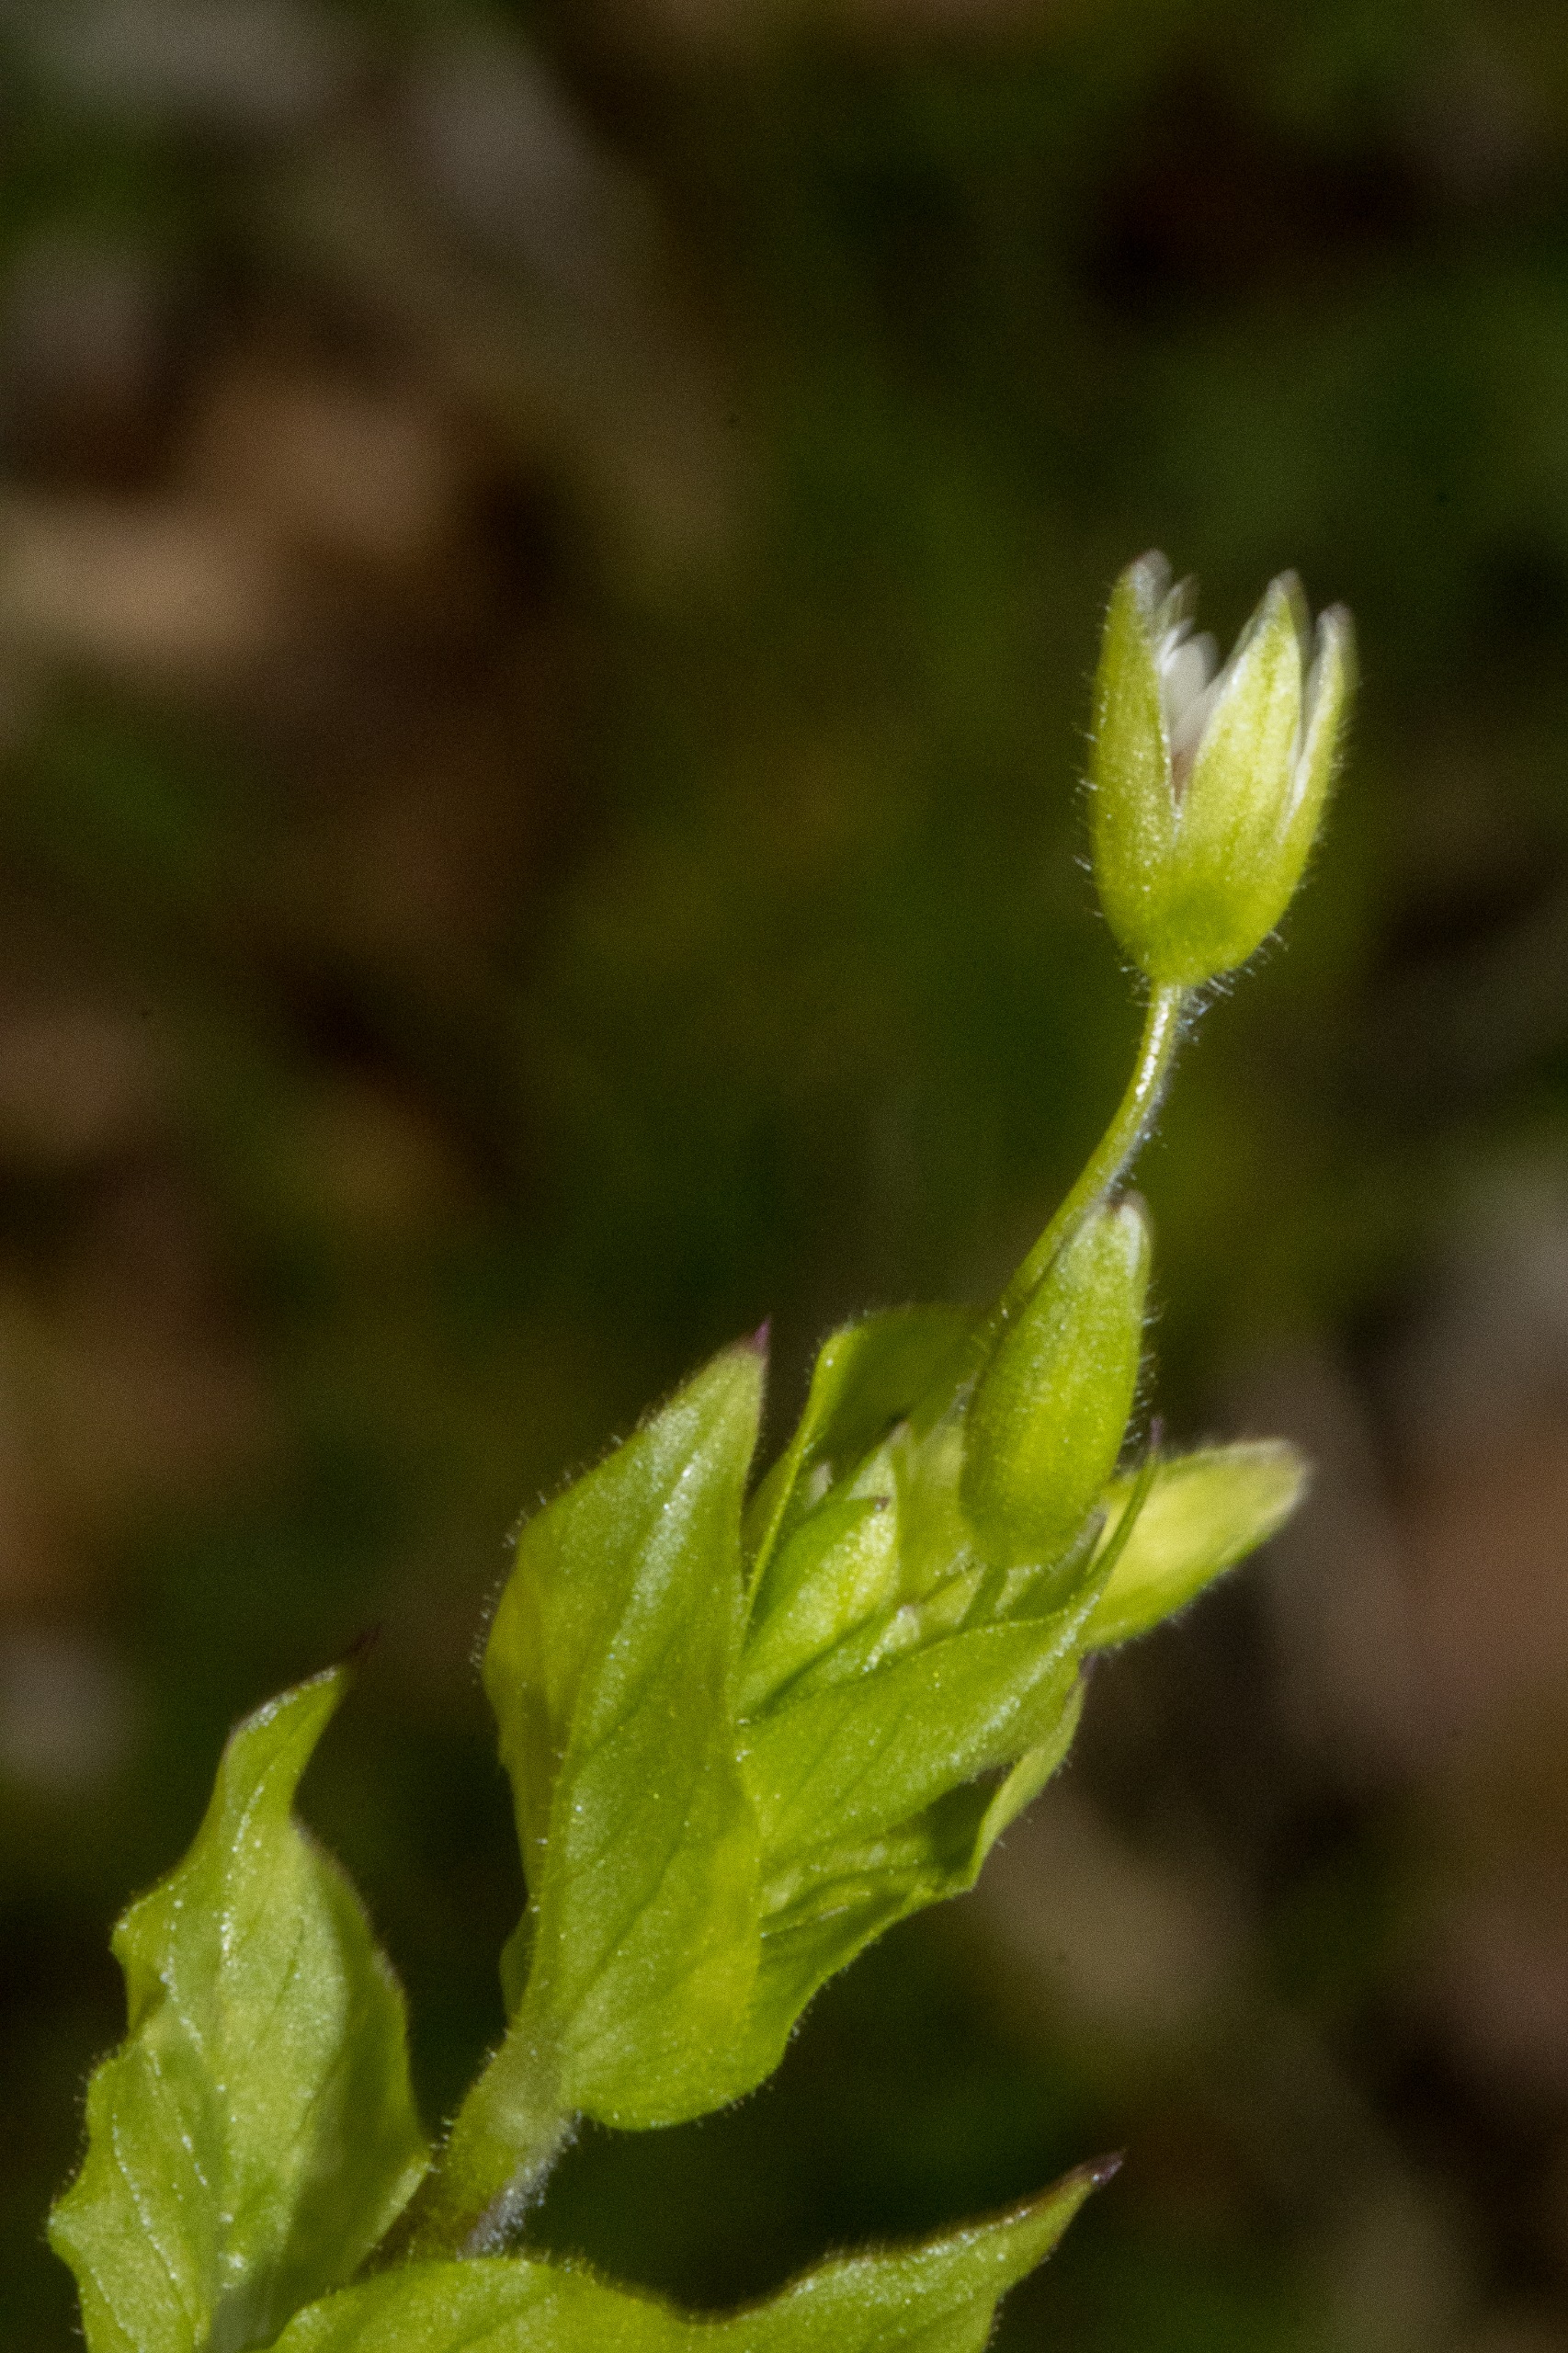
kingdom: Plantae
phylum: Tracheophyta
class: Magnoliopsida
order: Caryophyllales
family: Caryophyllaceae
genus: Stellaria
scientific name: Stellaria neglecta
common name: Skov-fuglegræs
